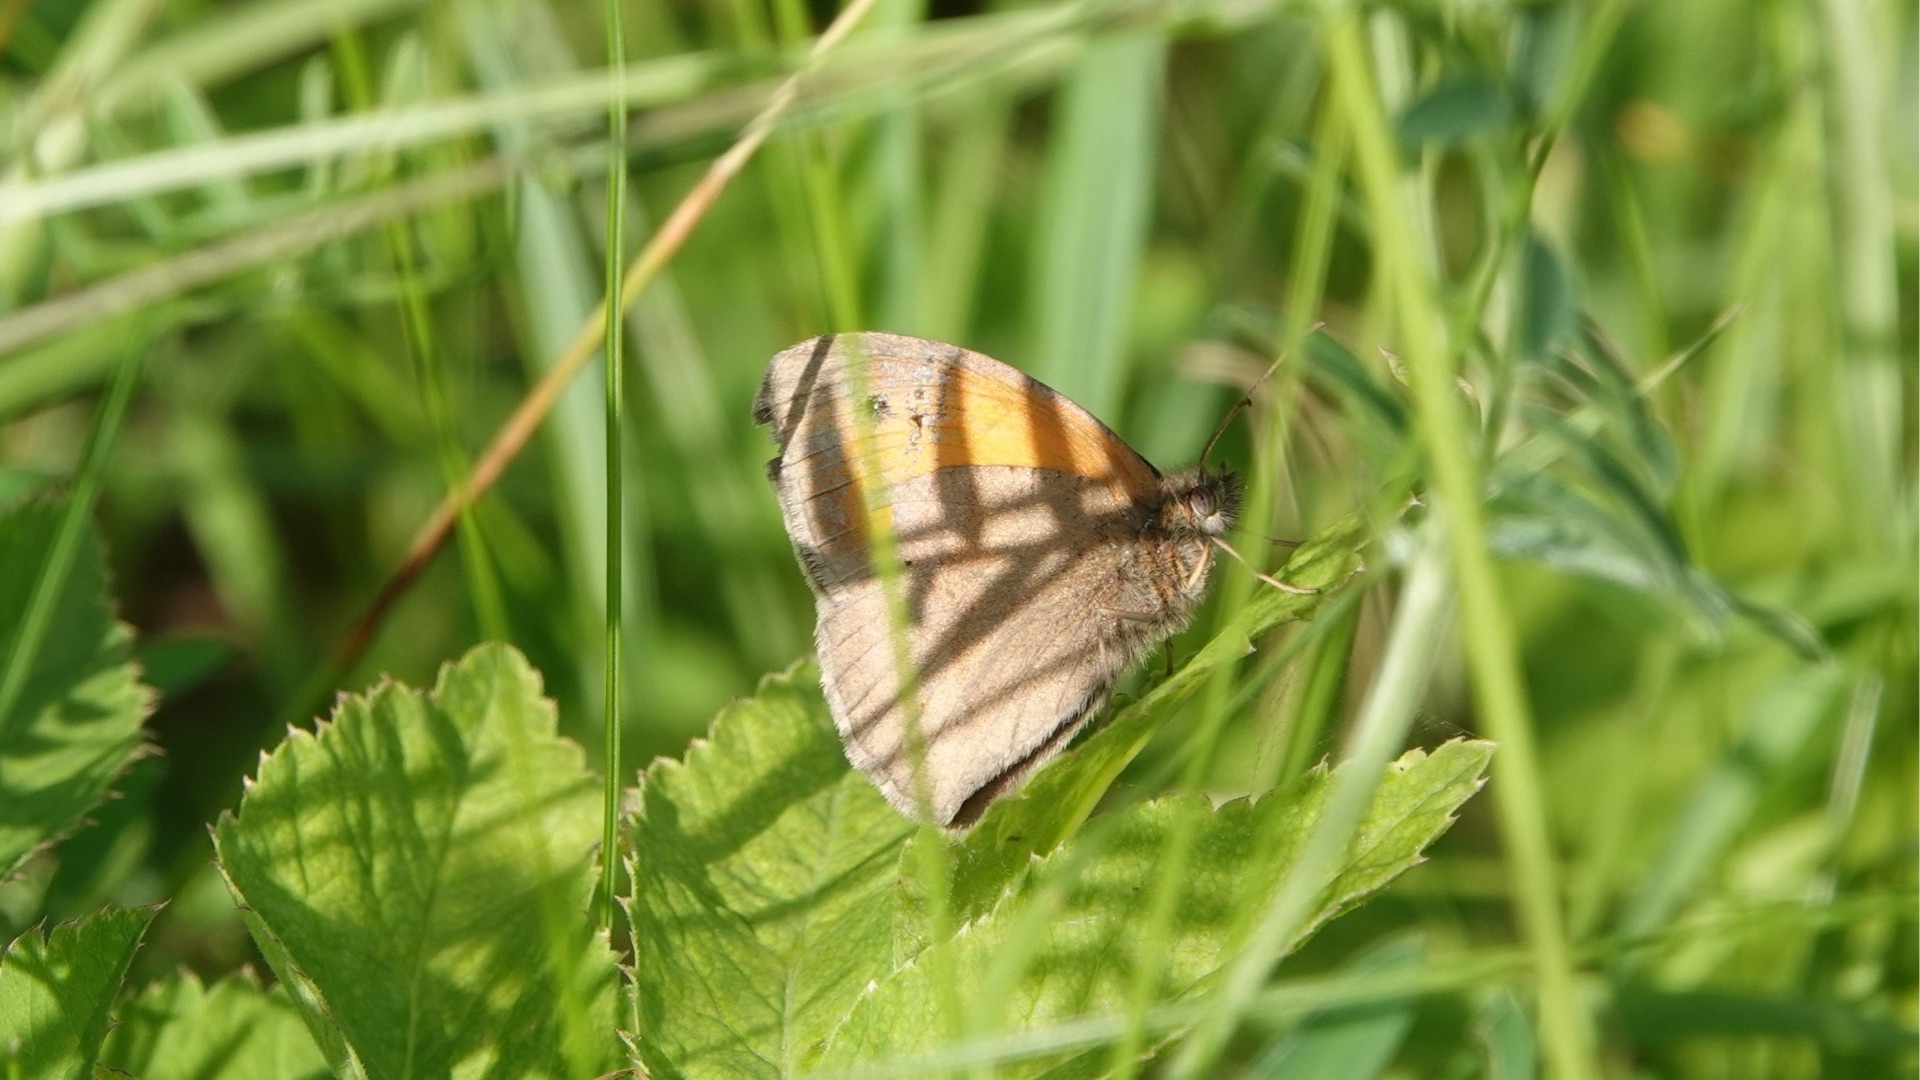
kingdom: Animalia
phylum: Arthropoda
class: Insecta
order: Lepidoptera
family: Nymphalidae
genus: Coenonympha
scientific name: Coenonympha pamphilus
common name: Okkergul randøje
